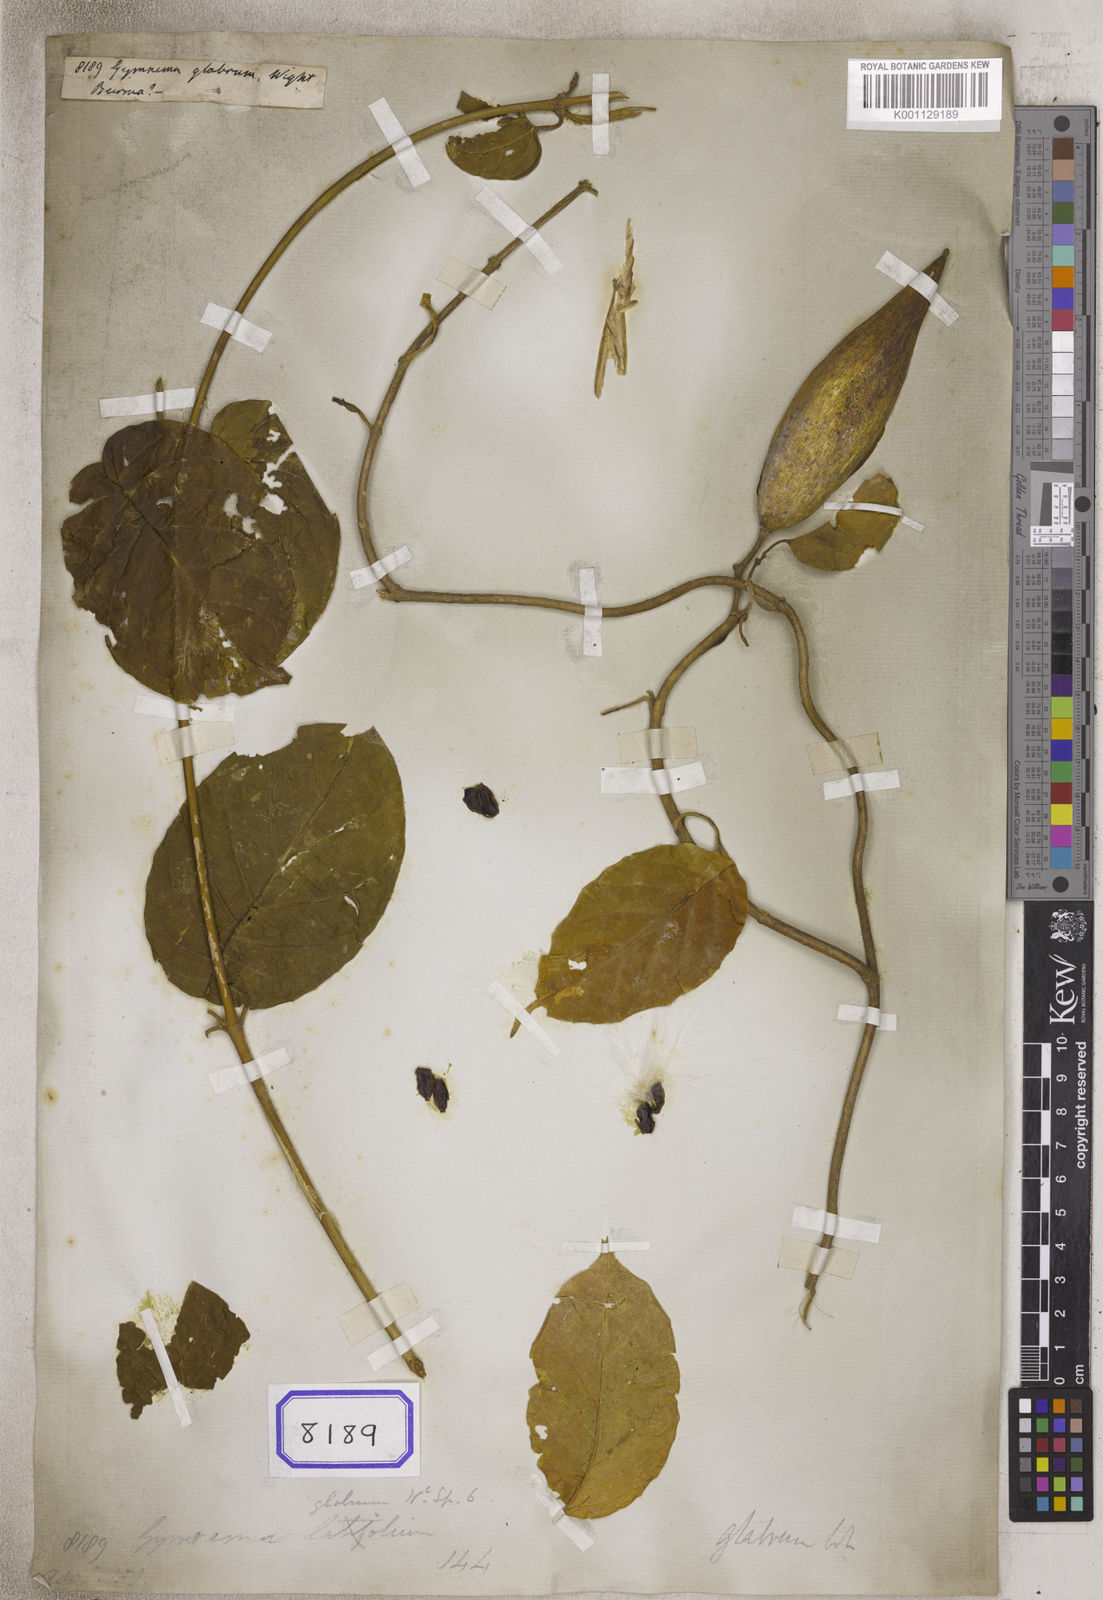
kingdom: Plantae
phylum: Tracheophyta
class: Magnoliopsida
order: Gentianales
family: Apocynaceae
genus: Gymnema
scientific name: Gymnema glabrum
